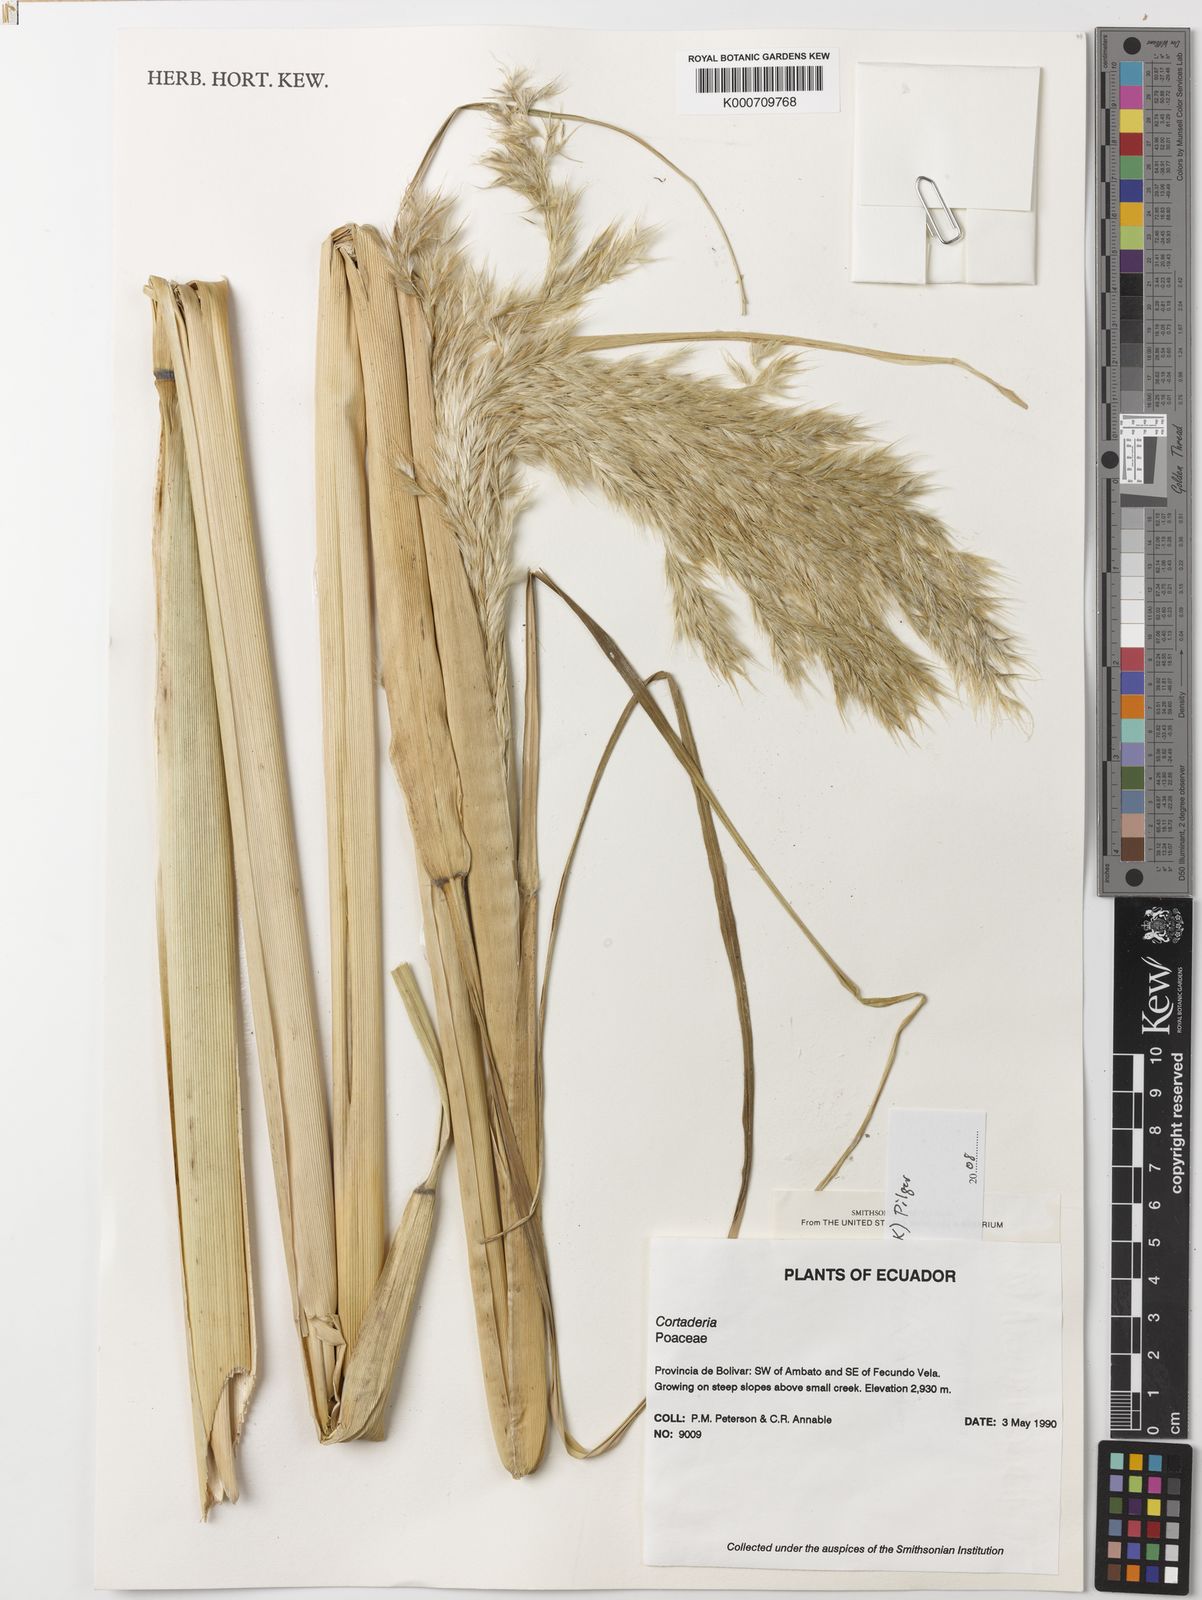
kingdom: Plantae
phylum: Tracheophyta
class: Liliopsida
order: Poales
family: Poaceae
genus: Cortaderia
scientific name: Cortaderia nitida
